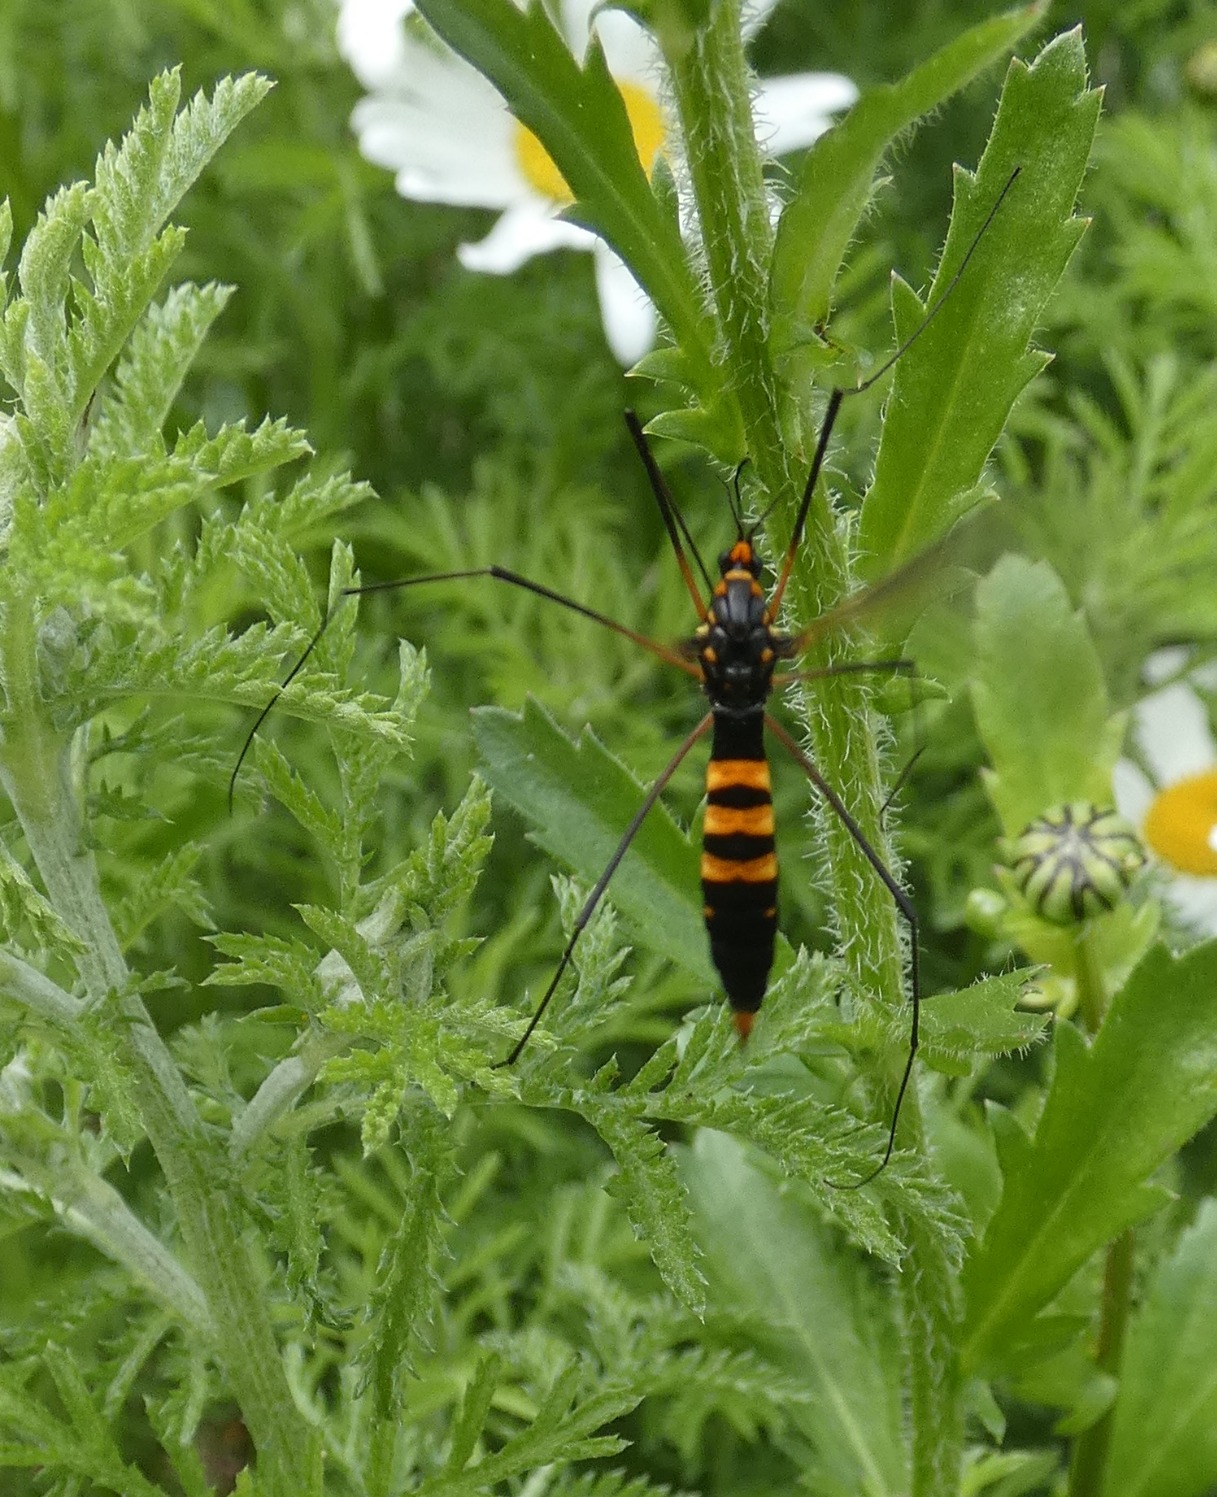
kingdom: Animalia
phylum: Arthropoda
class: Insecta
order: Diptera
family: Tipulidae
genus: Nephrotoma
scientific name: Nephrotoma crocata
